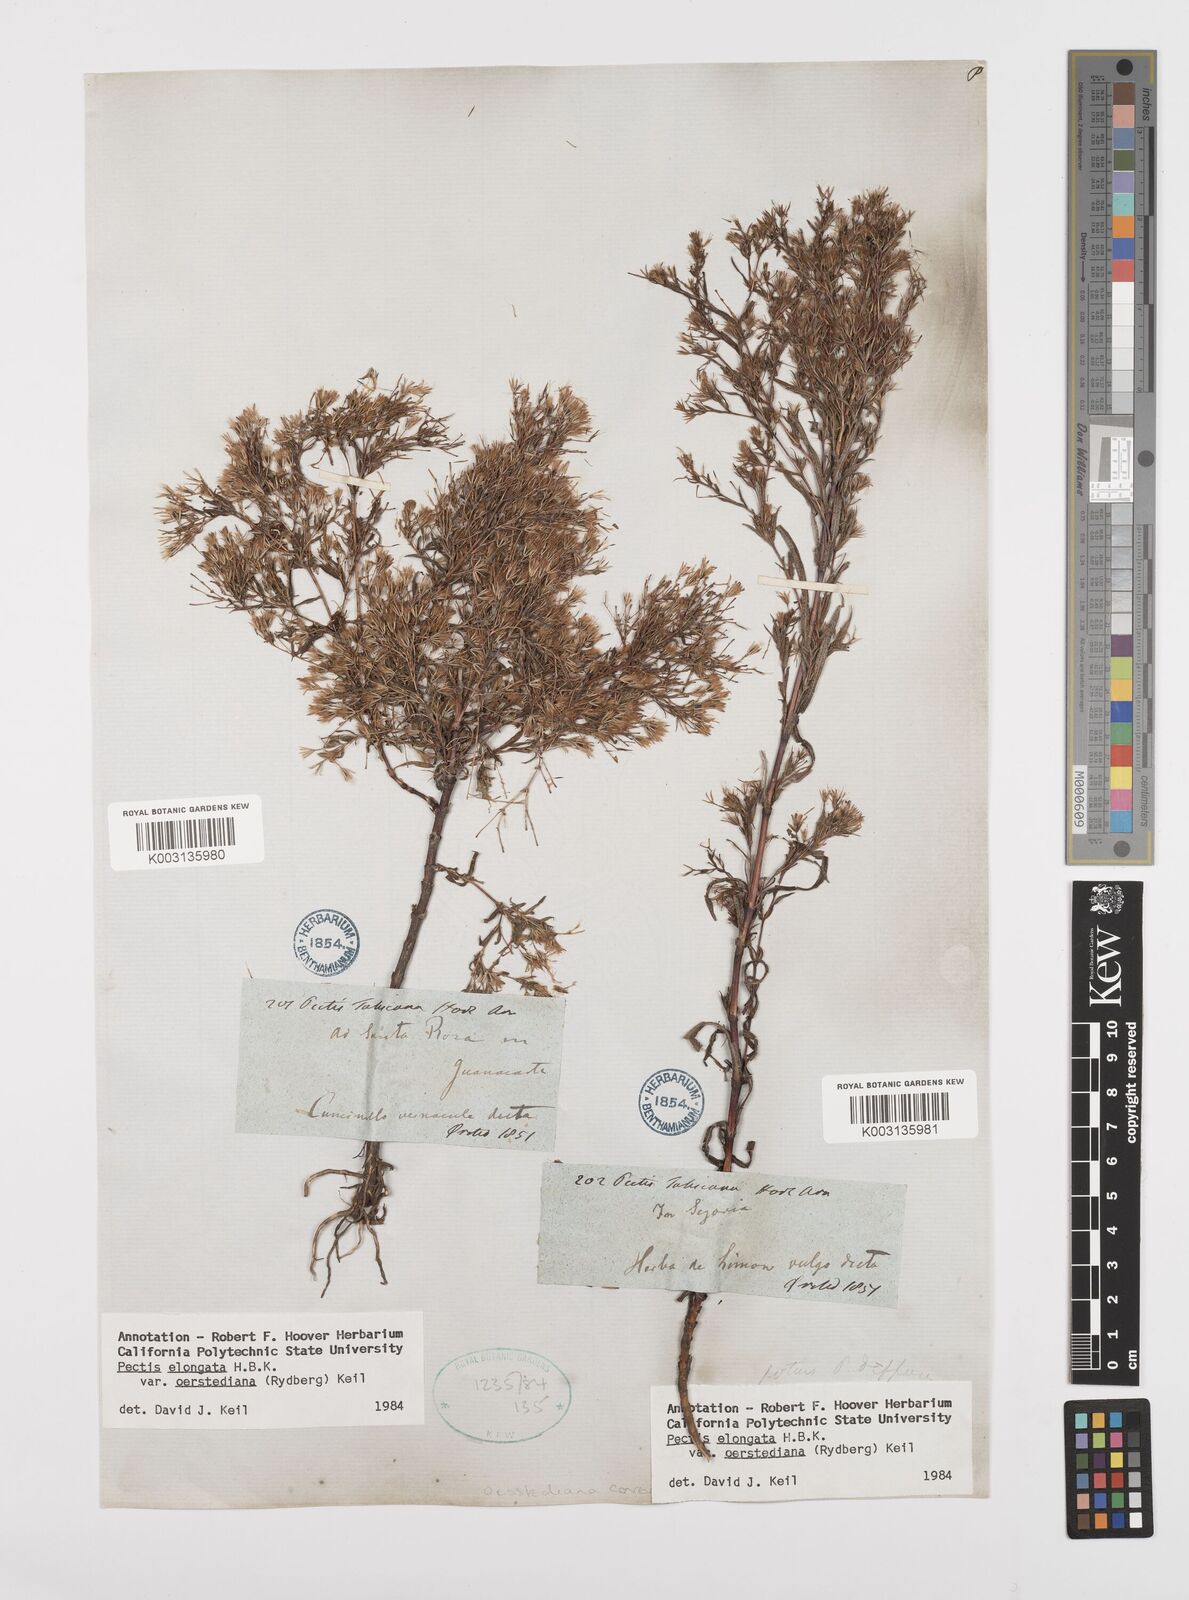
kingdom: Plantae
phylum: Tracheophyta
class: Magnoliopsida
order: Asterales
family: Asteraceae
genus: Pectis
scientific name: Pectis elongata
